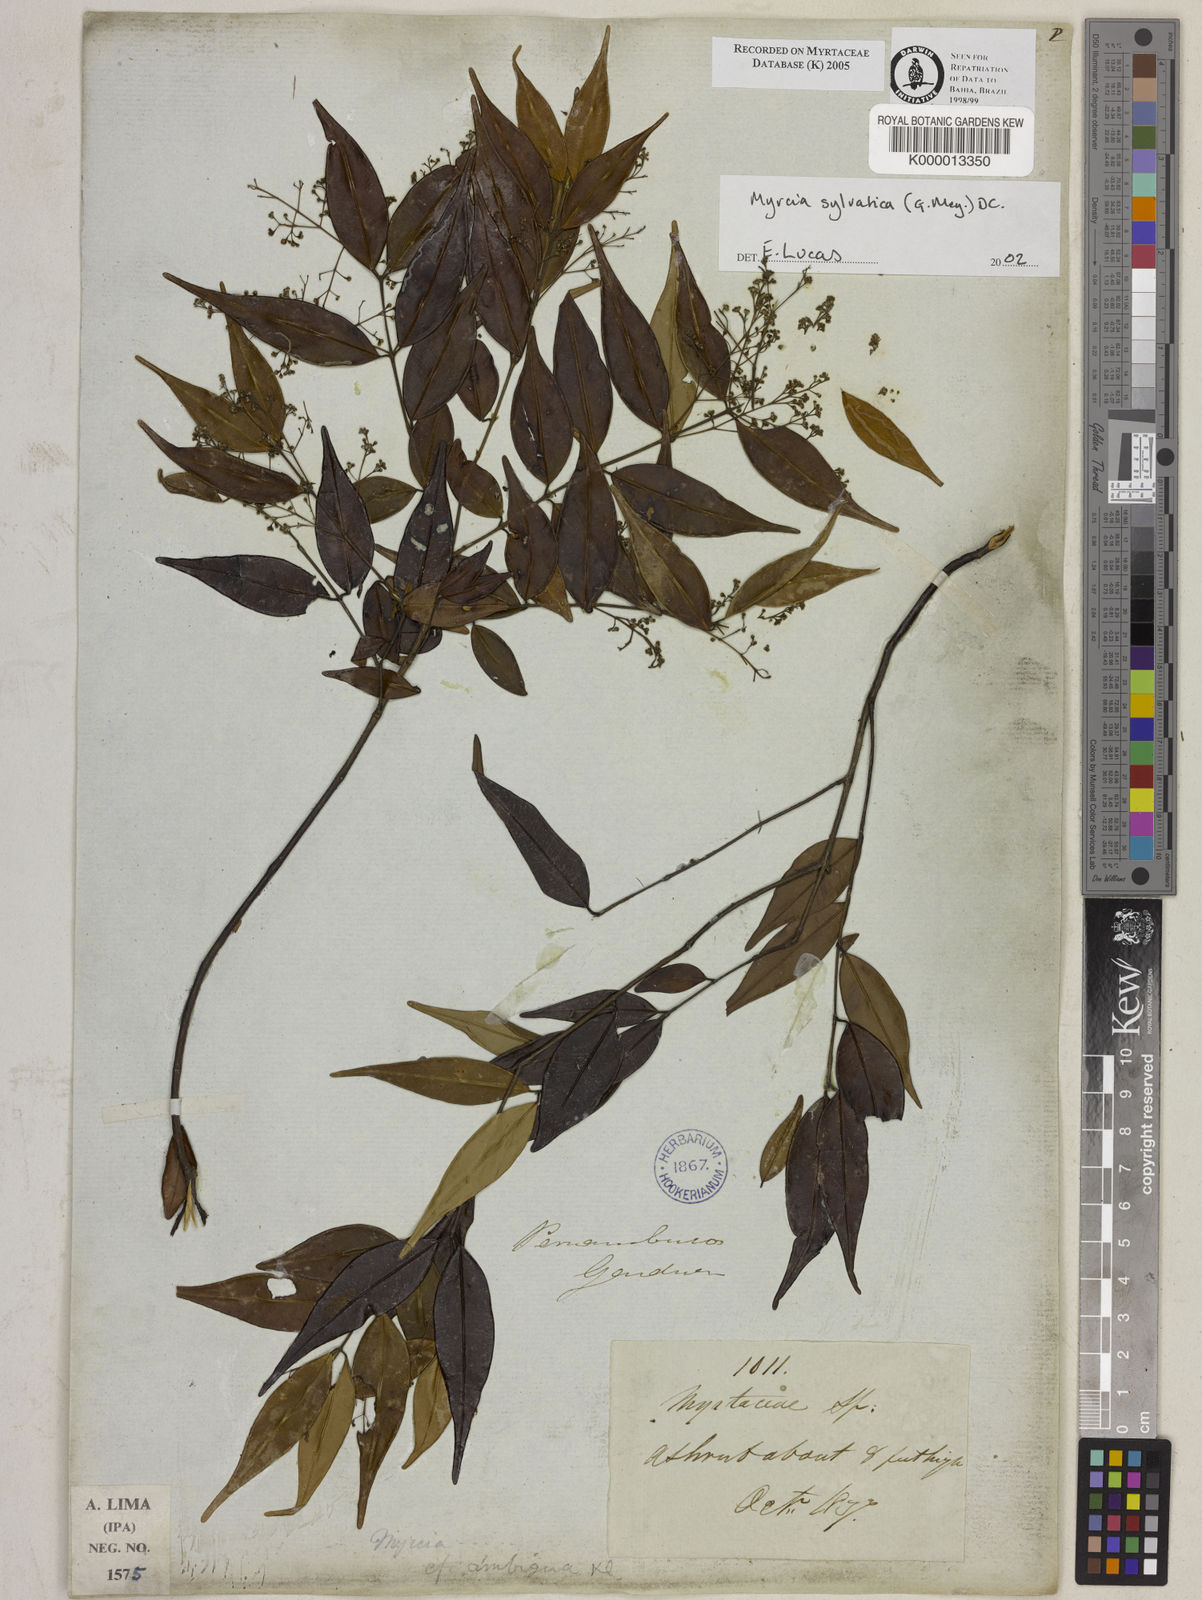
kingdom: Plantae
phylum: Tracheophyta
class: Magnoliopsida
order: Myrtales
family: Myrtaceae
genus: Myrcia
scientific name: Myrcia sylvatica
